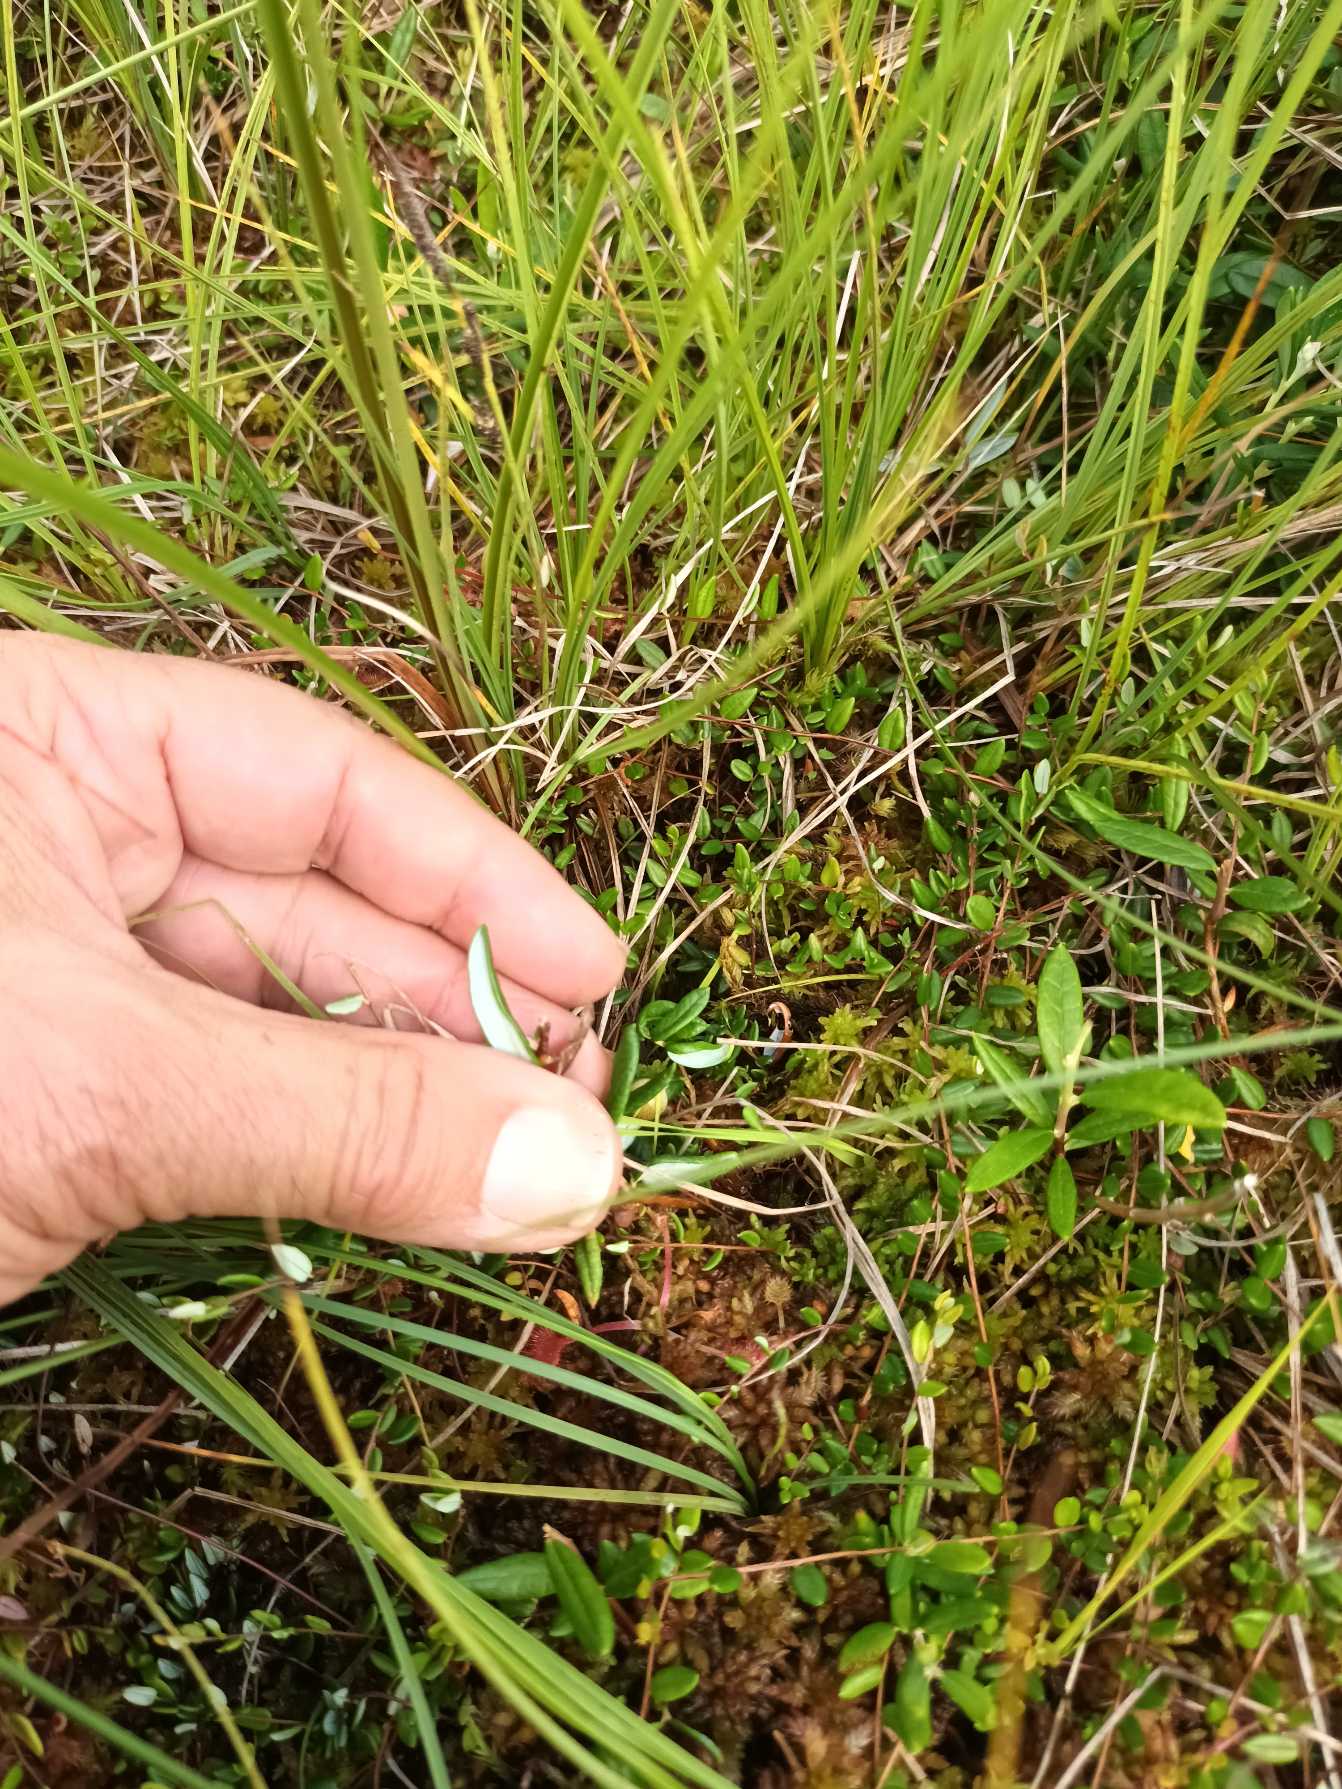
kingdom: Plantae
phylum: Tracheophyta
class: Magnoliopsida
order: Ericales
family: Ericaceae
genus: Andromeda
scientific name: Andromeda polifolia
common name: Rosmarinlyng
